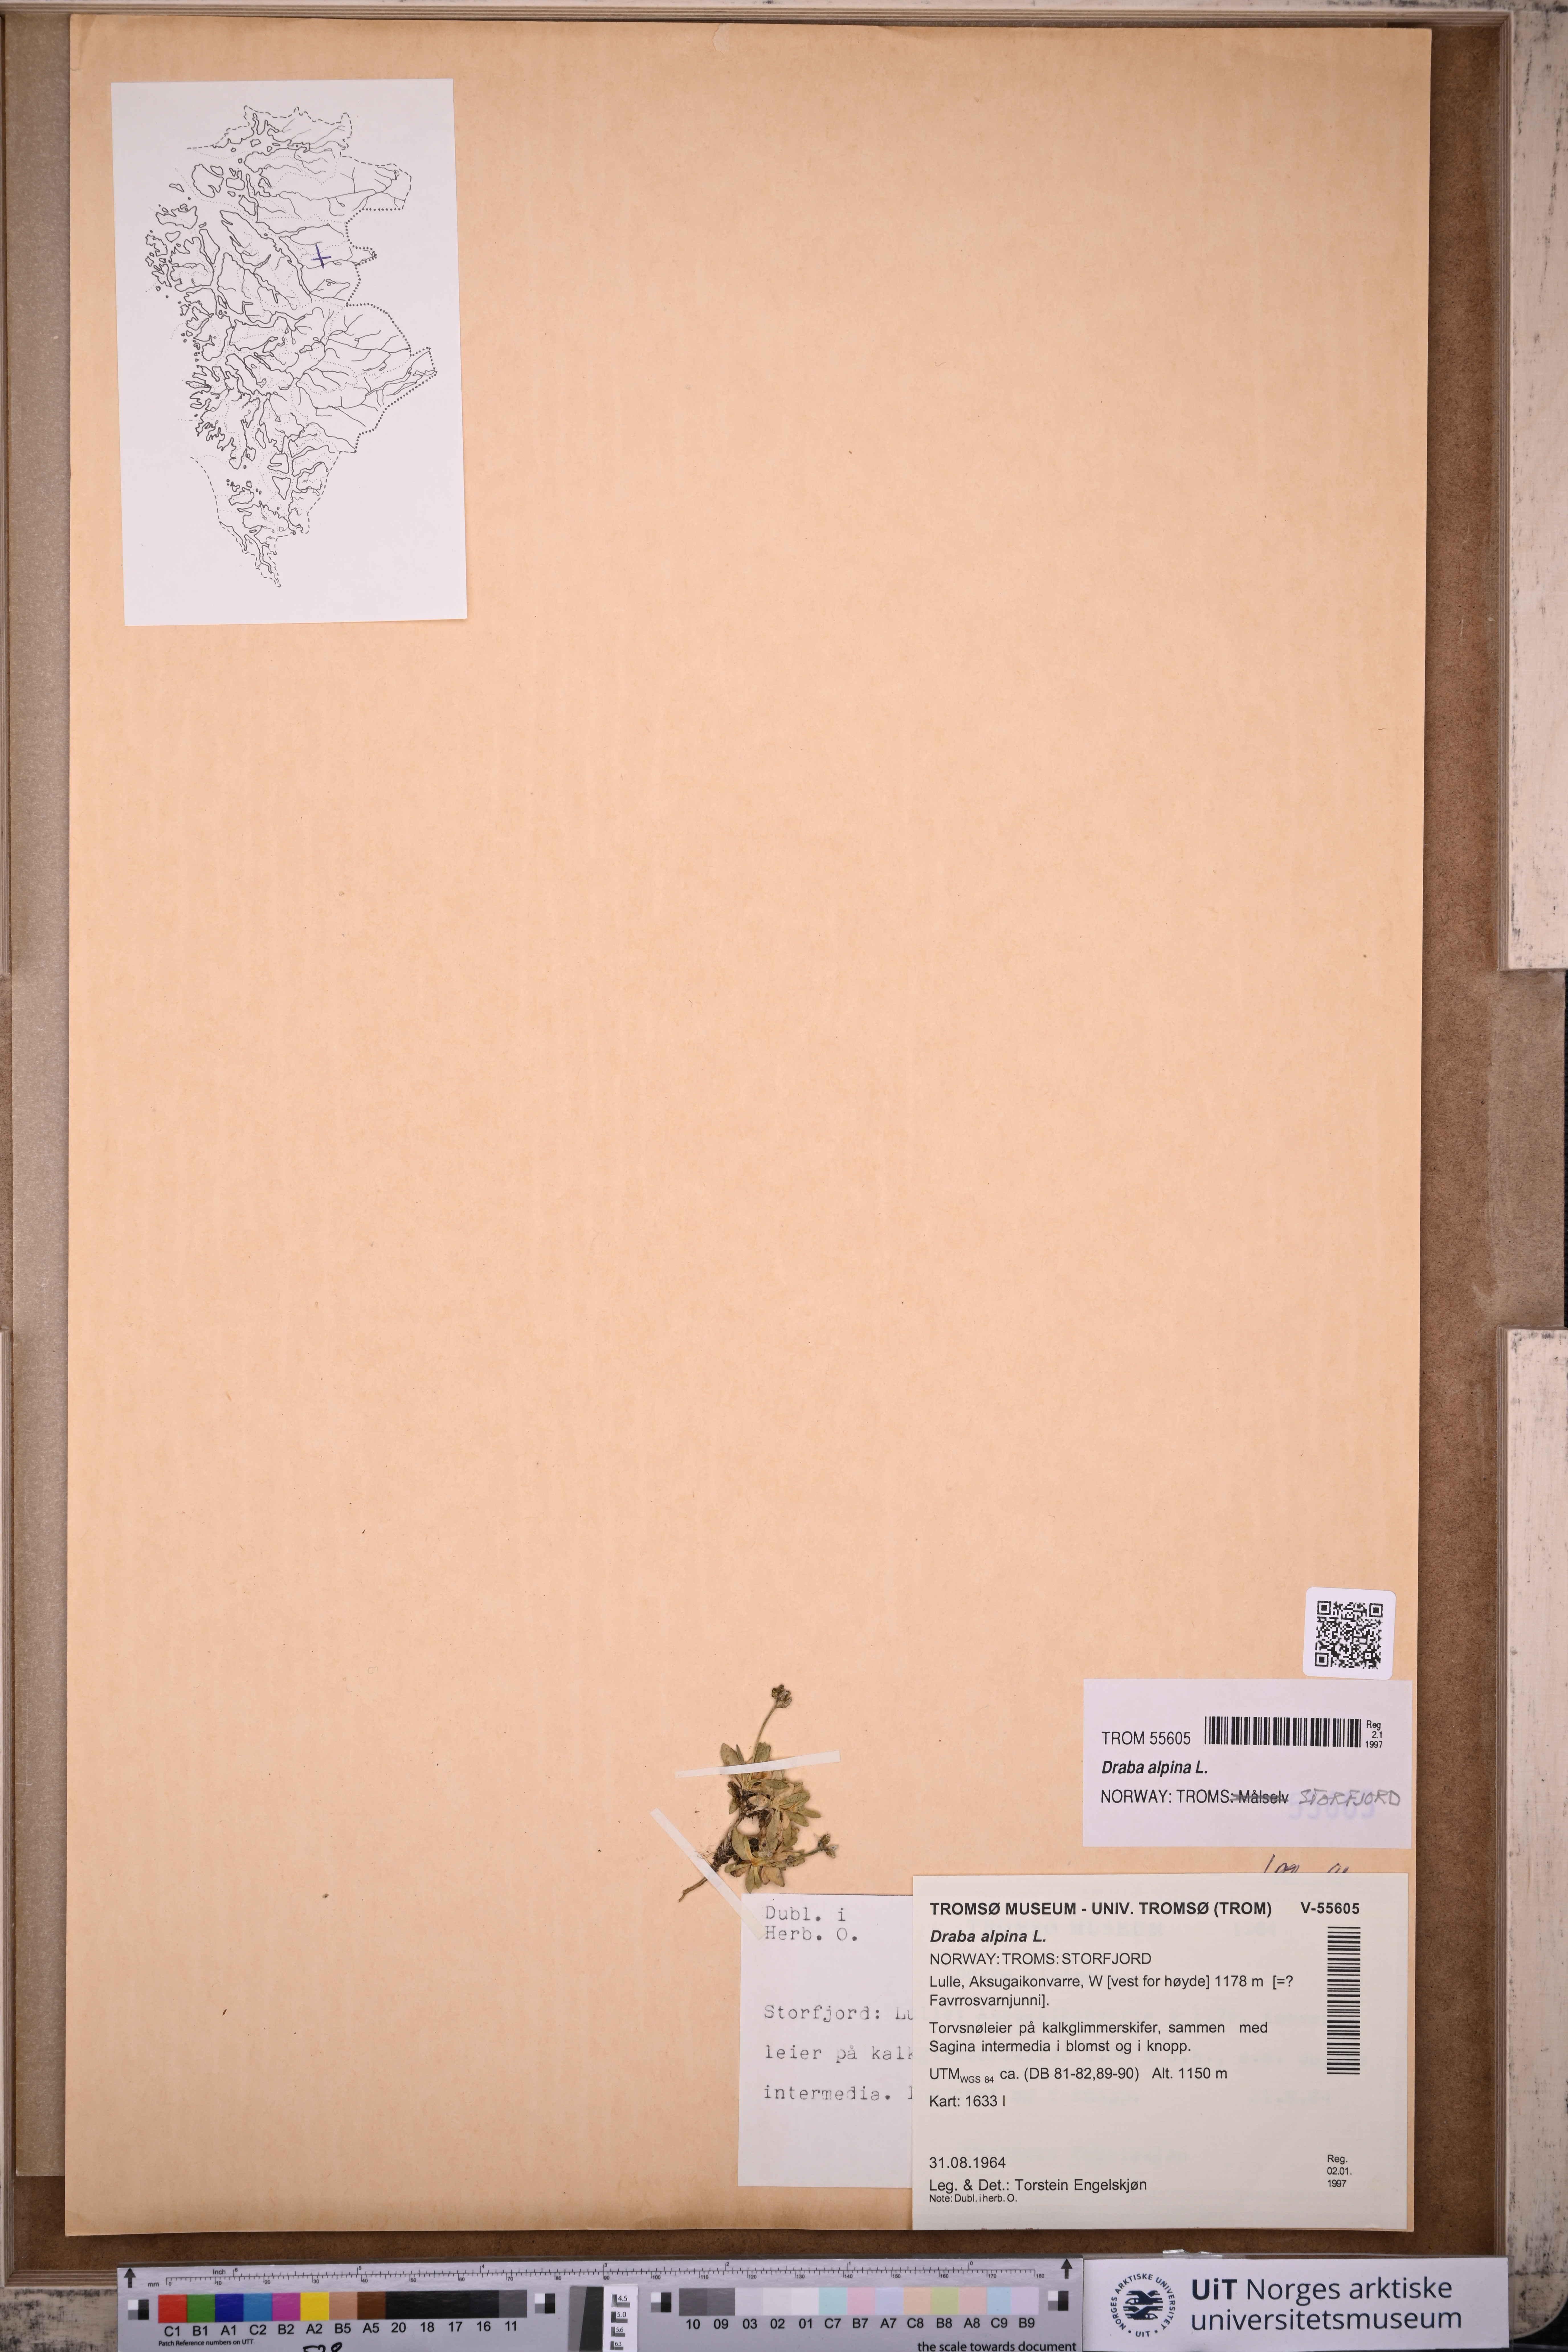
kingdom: Plantae
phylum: Tracheophyta
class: Magnoliopsida
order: Brassicales
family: Brassicaceae
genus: Draba
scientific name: Draba alpina
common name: Alpine draba
